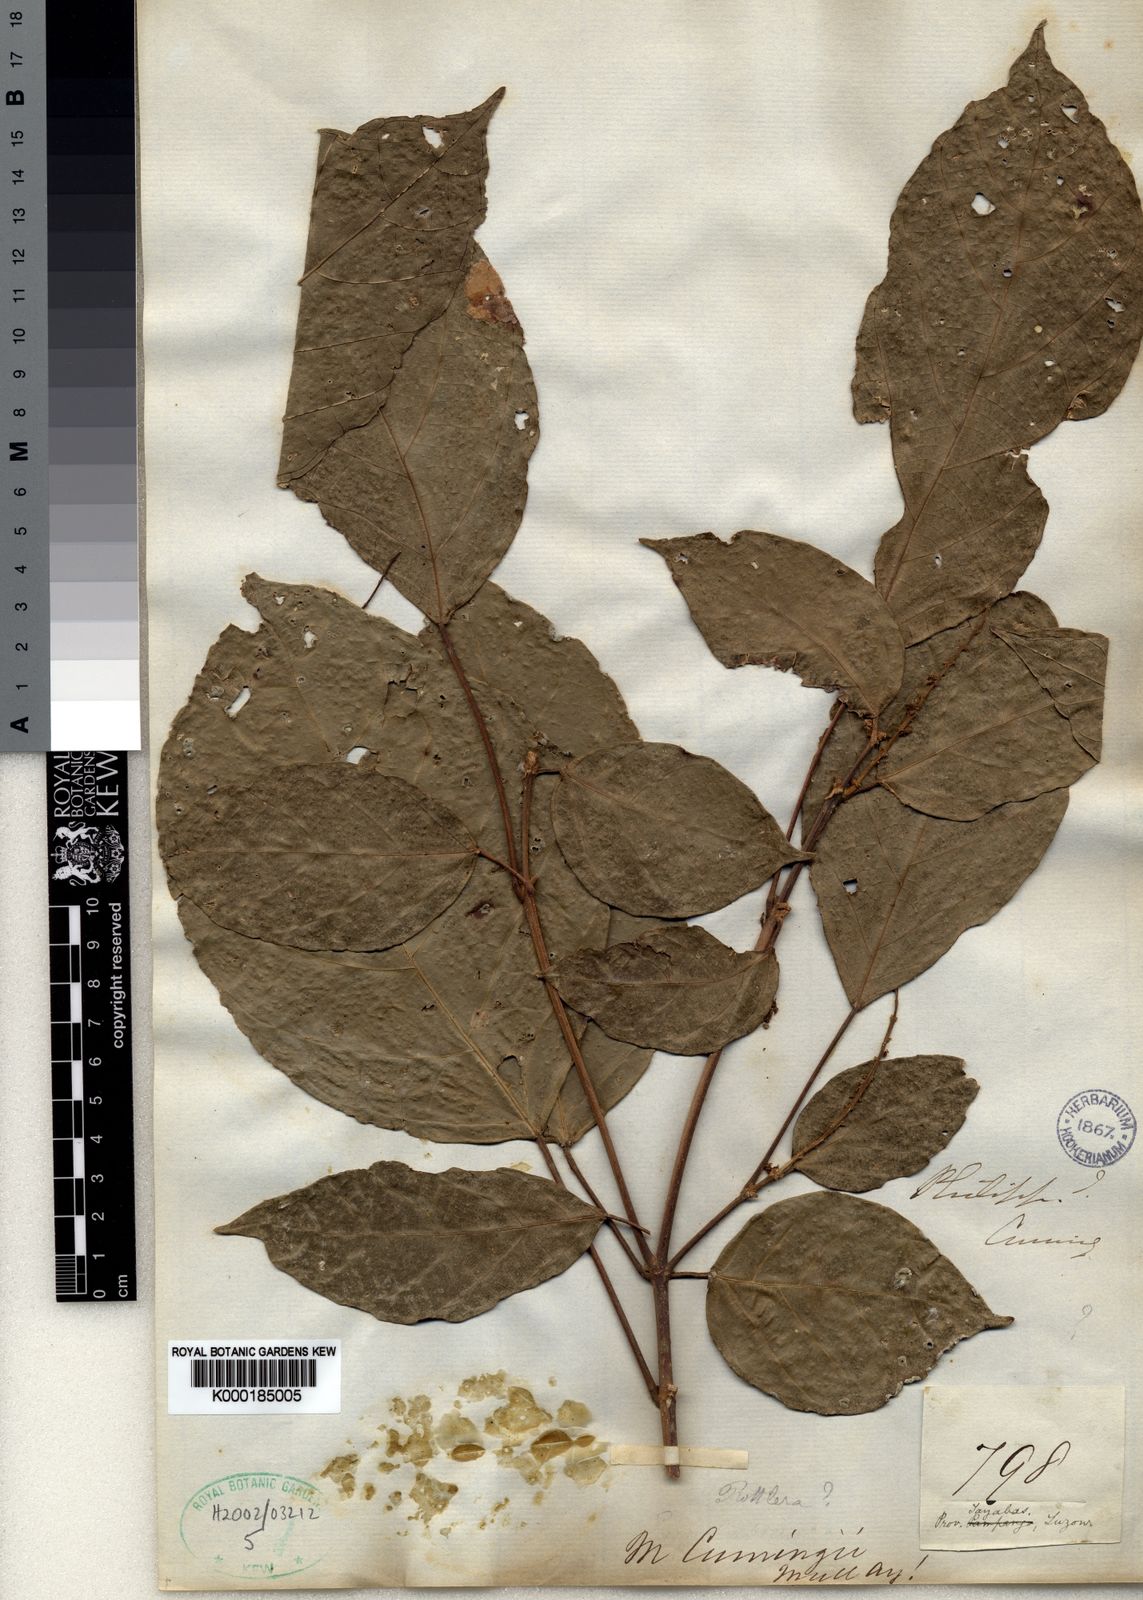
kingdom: Plantae
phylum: Tracheophyta
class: Magnoliopsida
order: Malpighiales
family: Euphorbiaceae
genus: Mallotus
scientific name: Mallotus cumingii
